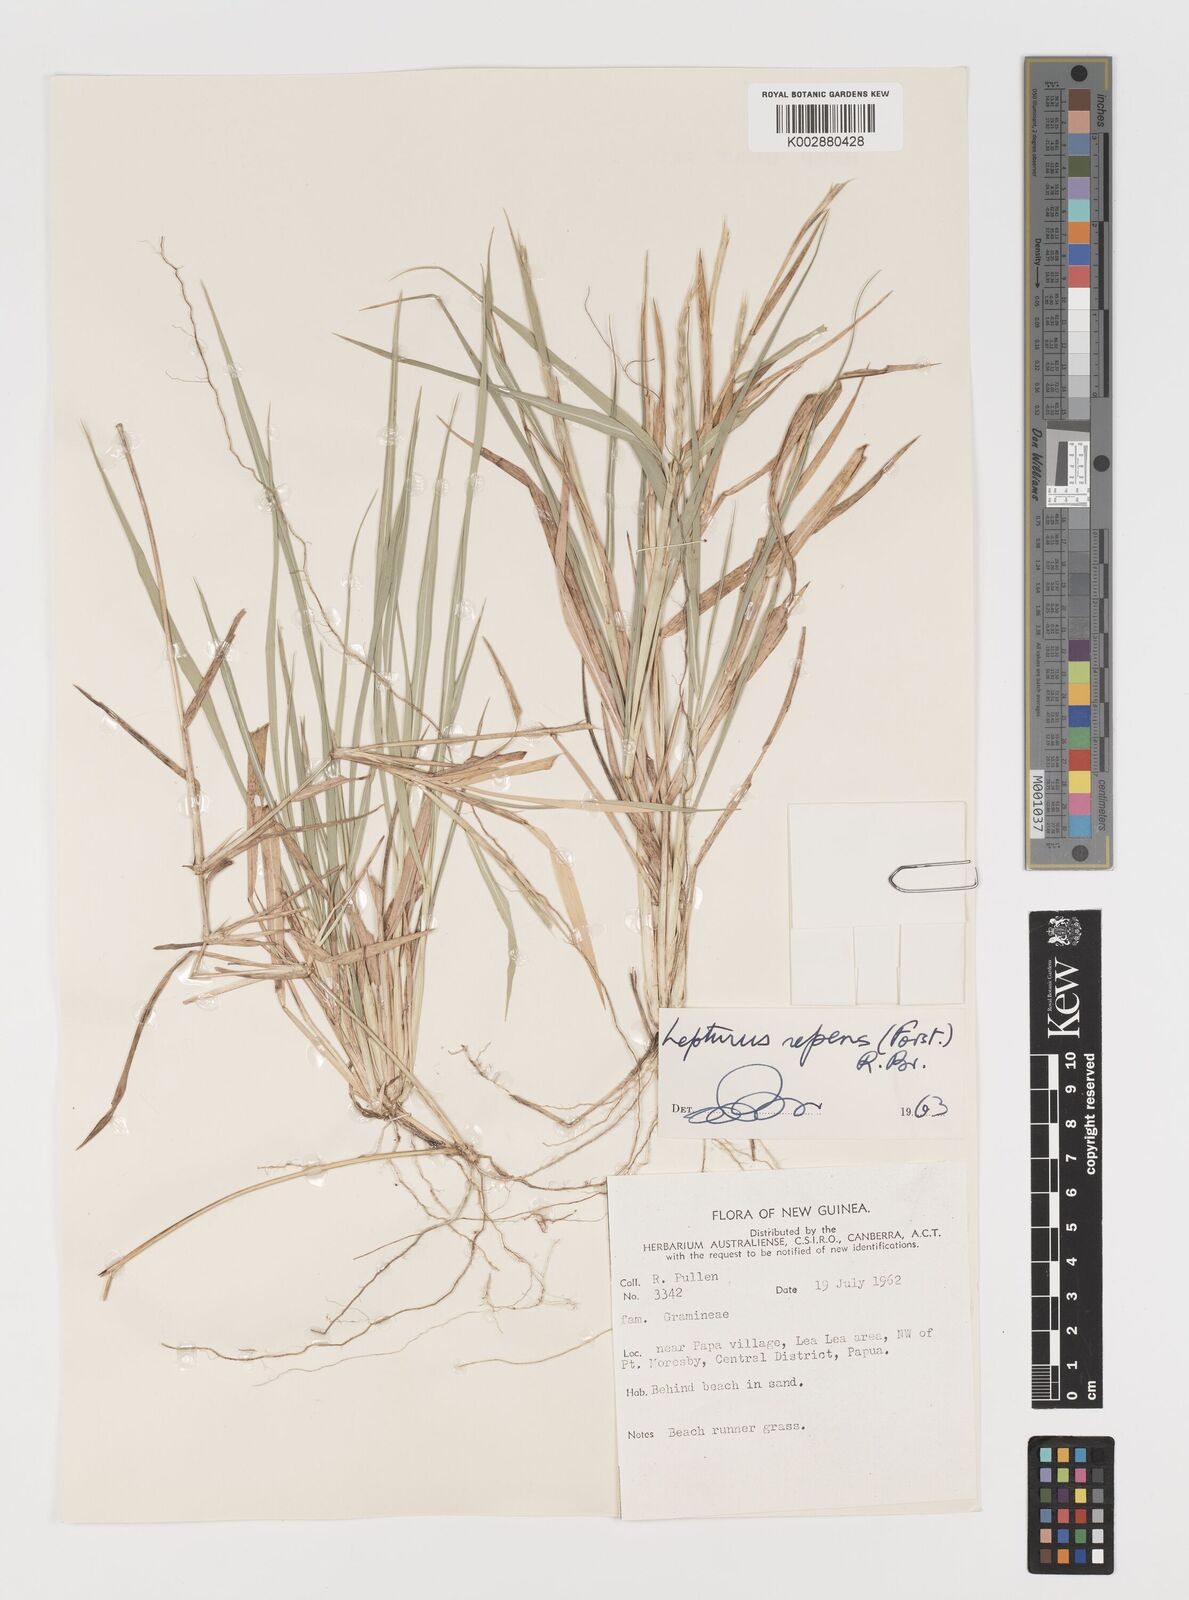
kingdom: Plantae
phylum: Tracheophyta
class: Liliopsida
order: Poales
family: Poaceae
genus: Lepturus
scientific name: Lepturus repens
